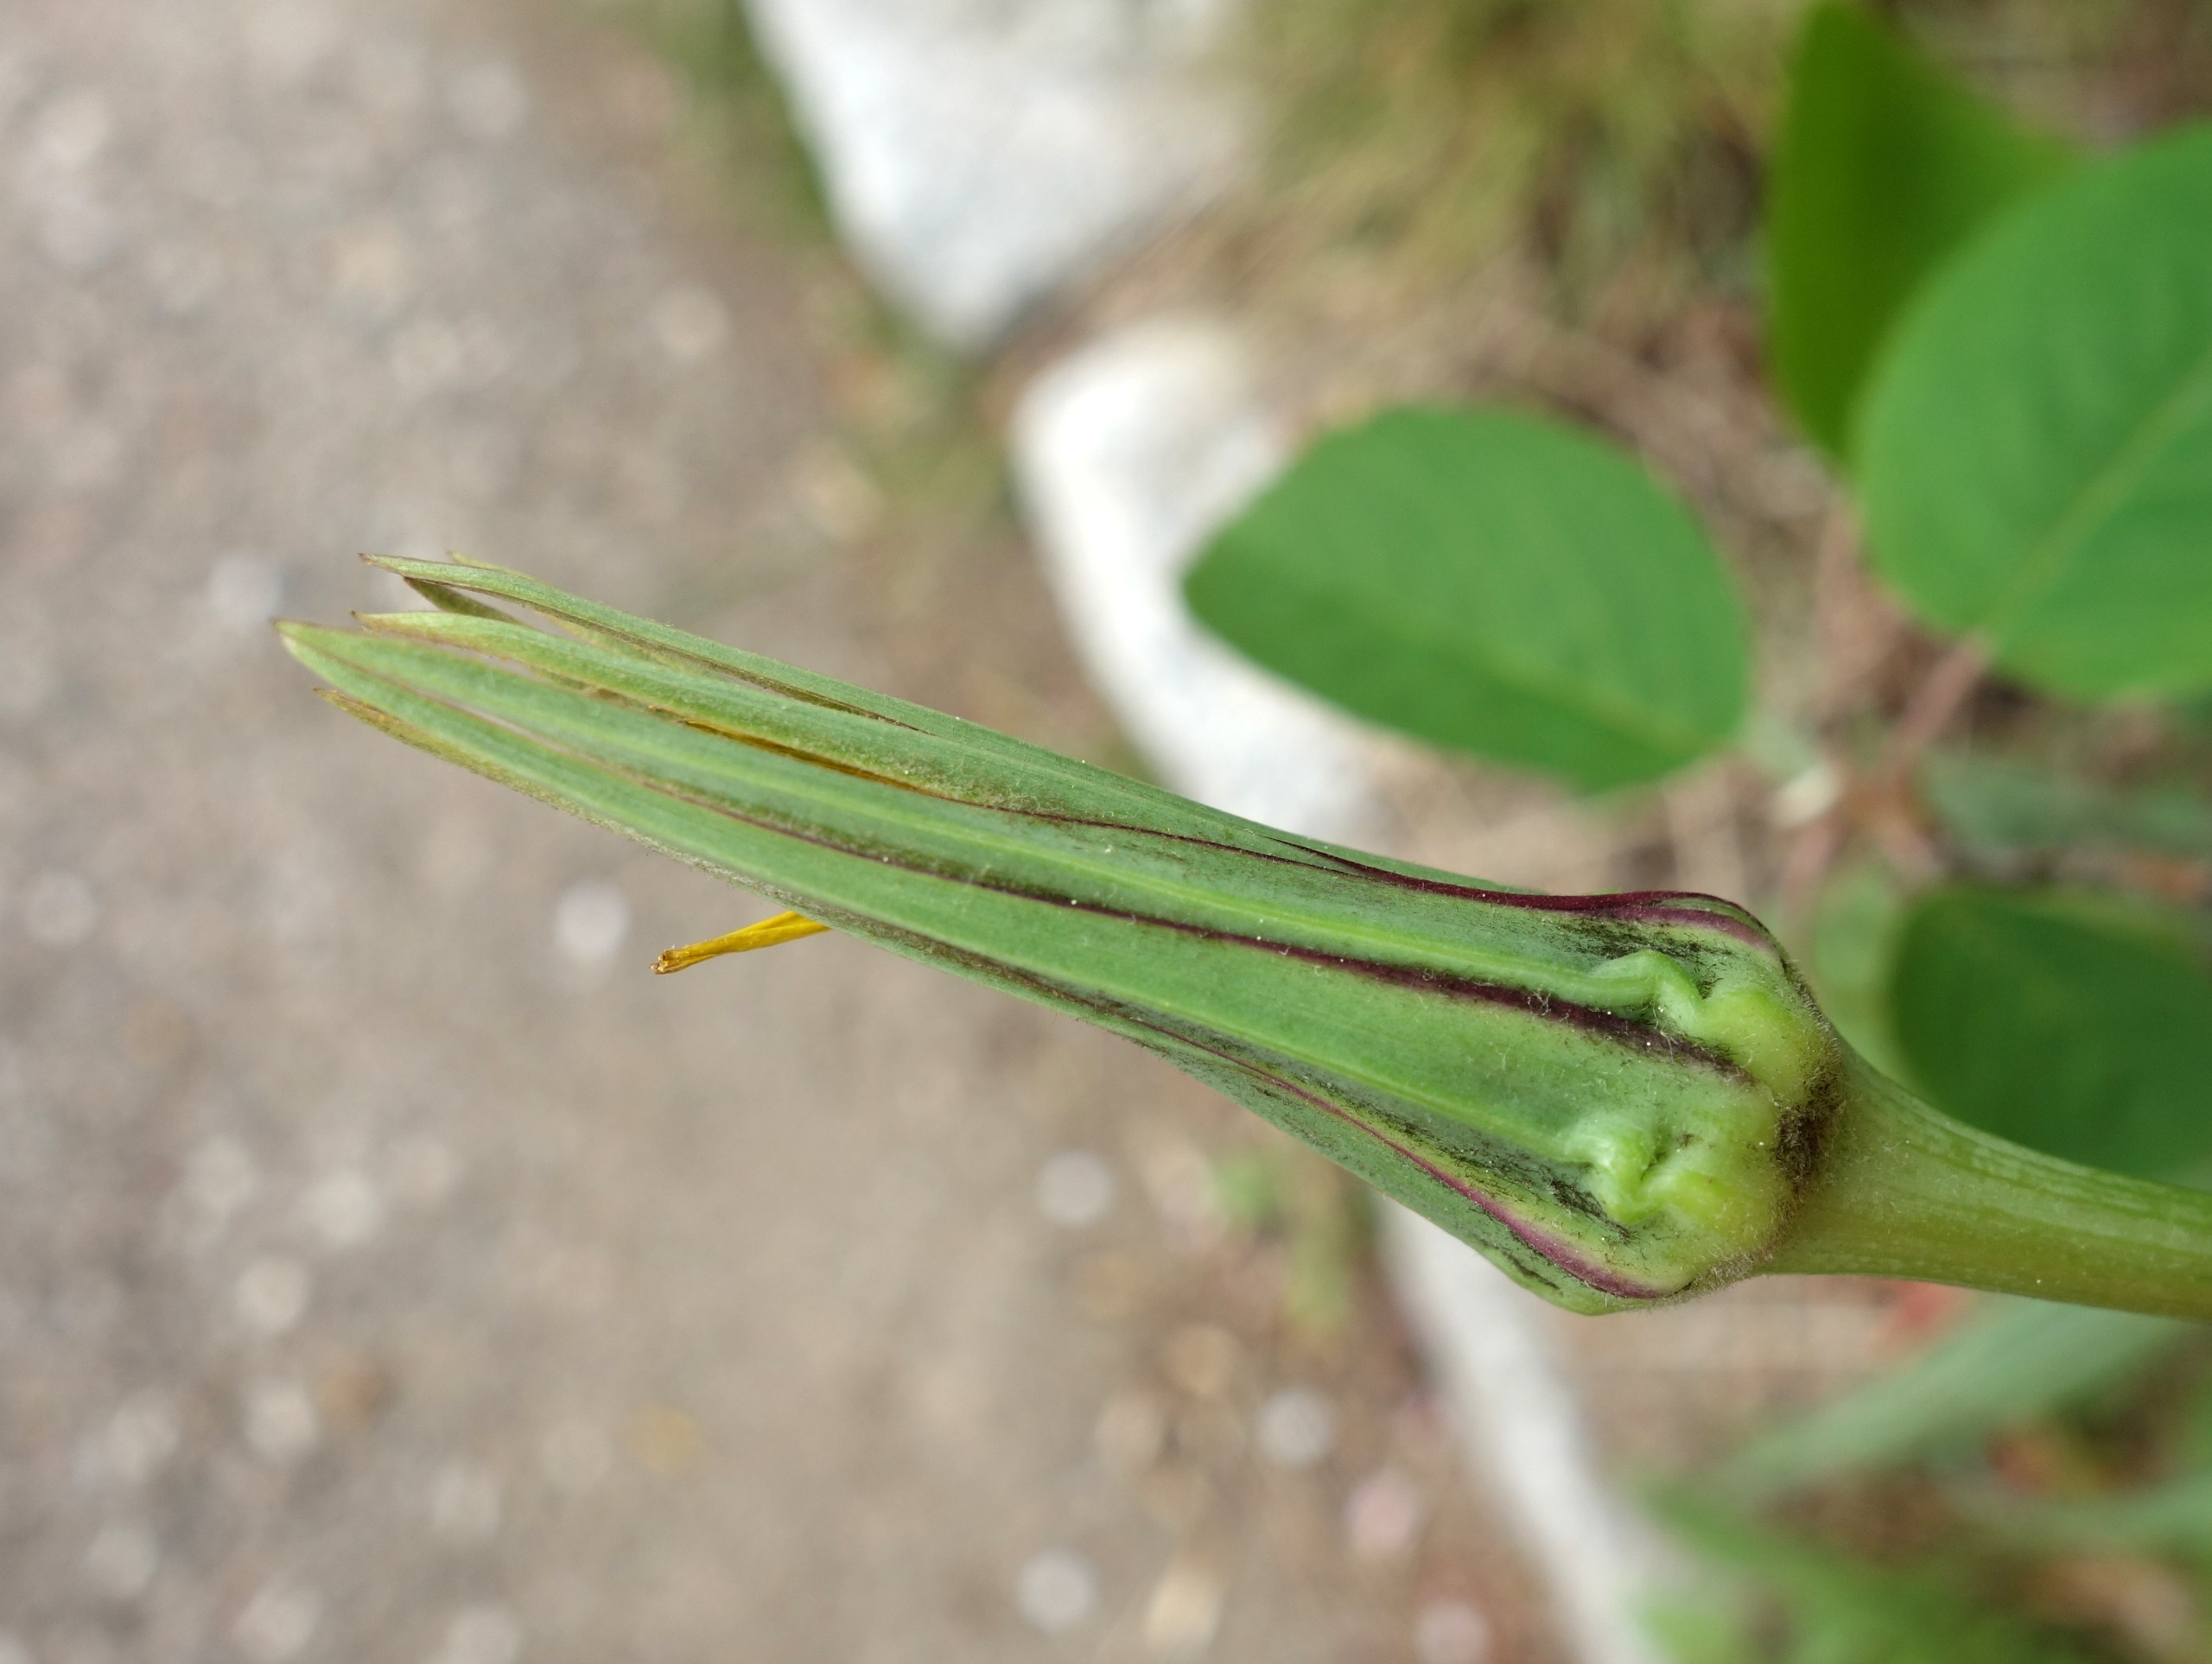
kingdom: Plantae
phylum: Tracheophyta
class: Magnoliopsida
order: Asterales
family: Asteraceae
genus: Tragopogon
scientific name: Tragopogon minor
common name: Småkronet gedeskæg
